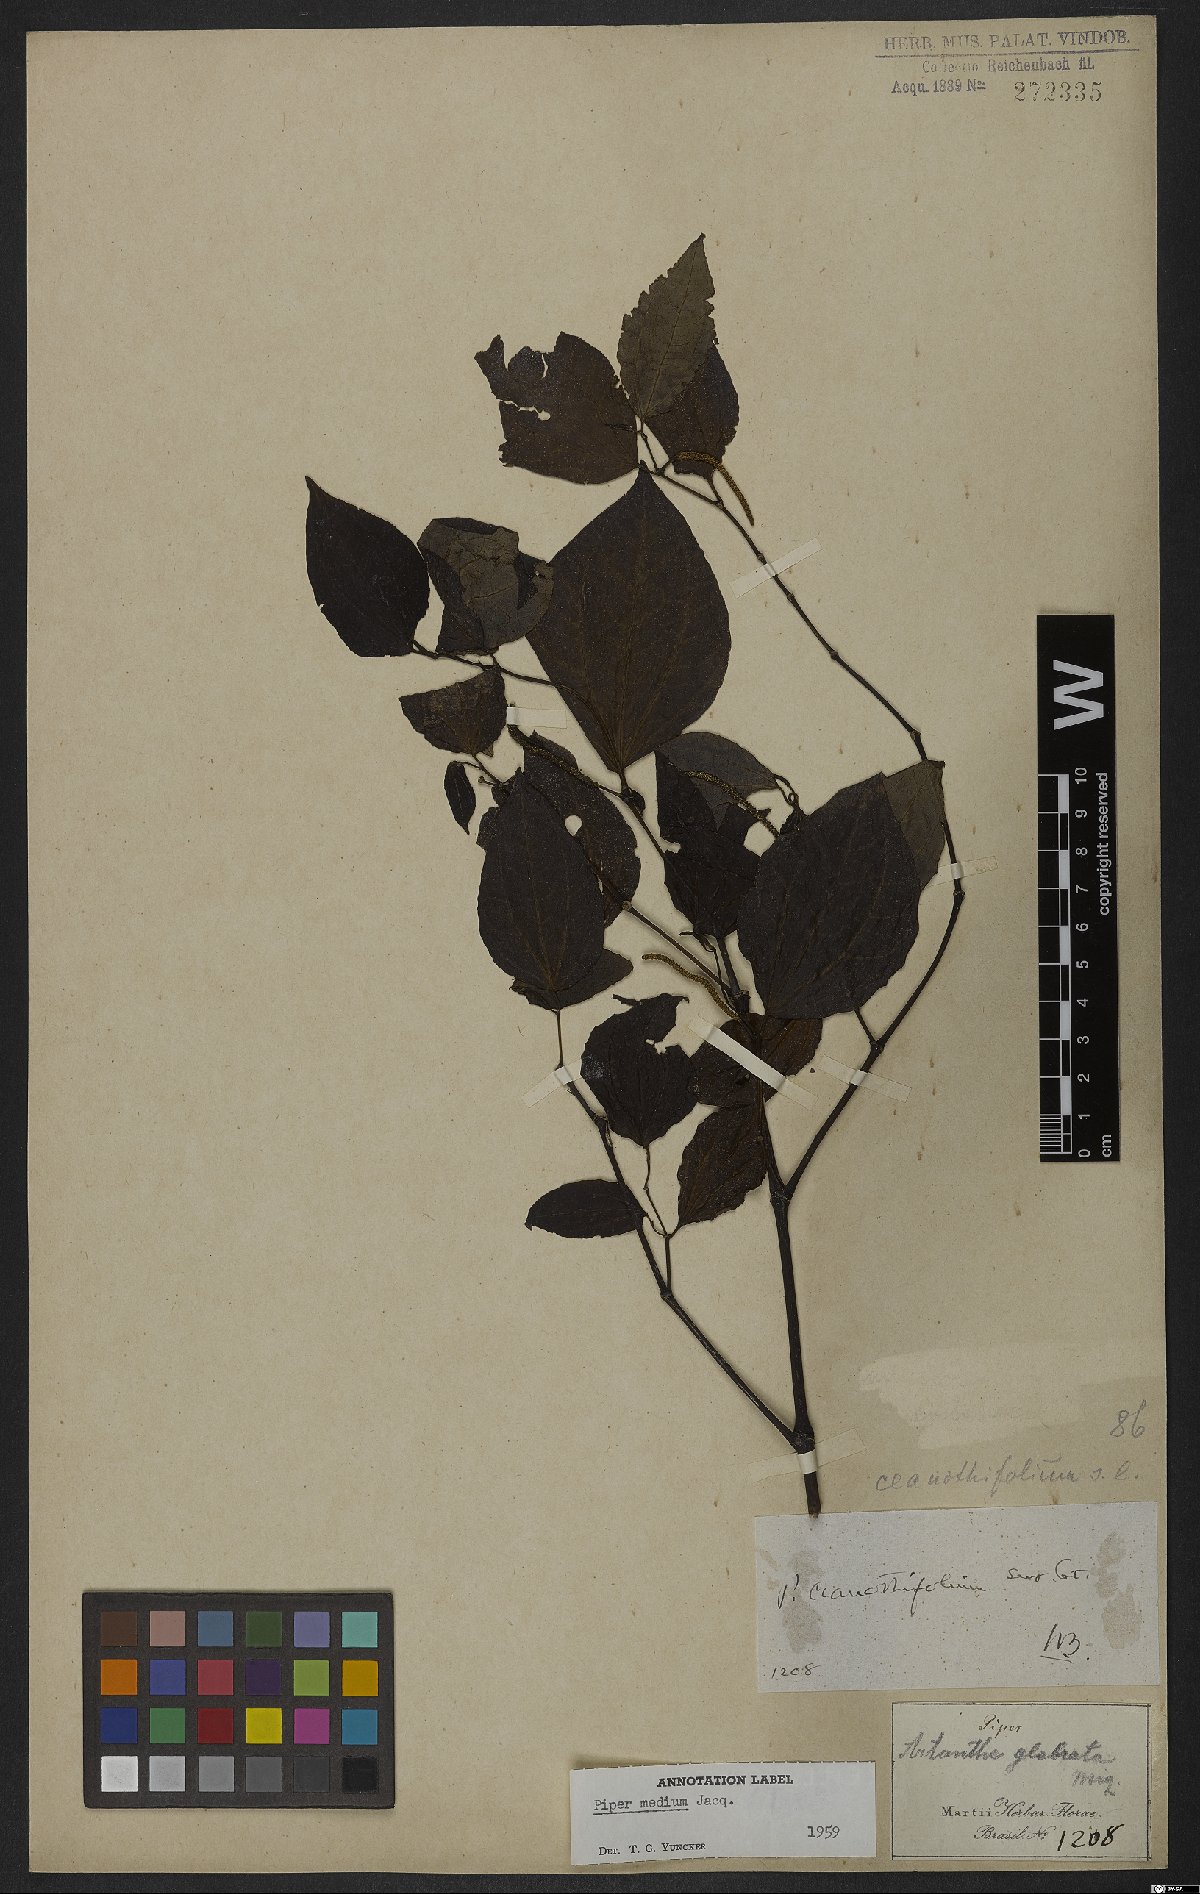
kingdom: Plantae
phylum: Tracheophyta
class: Magnoliopsida
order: Piperales
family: Piperaceae
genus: Piper
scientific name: Piper amalago
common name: Pepper-elder
